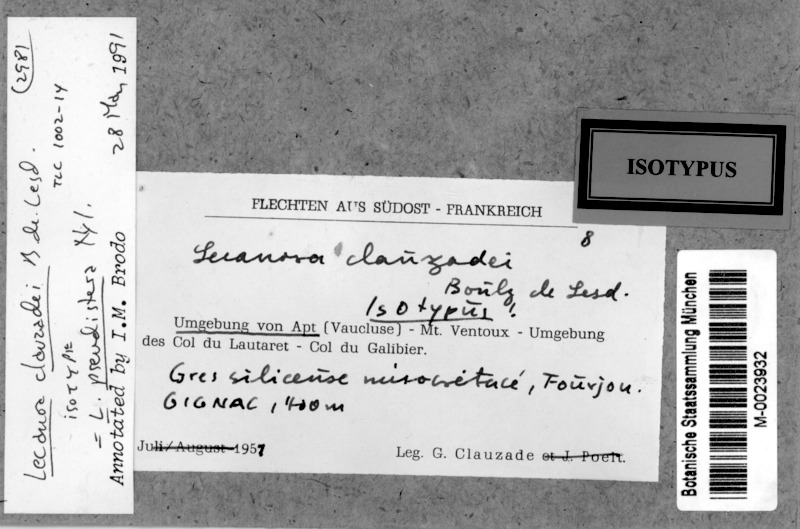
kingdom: Fungi
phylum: Ascomycota
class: Lecanoromycetes
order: Lecanorales
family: Lecanoraceae
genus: Omphalodina
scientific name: Omphalodina pseudistera
